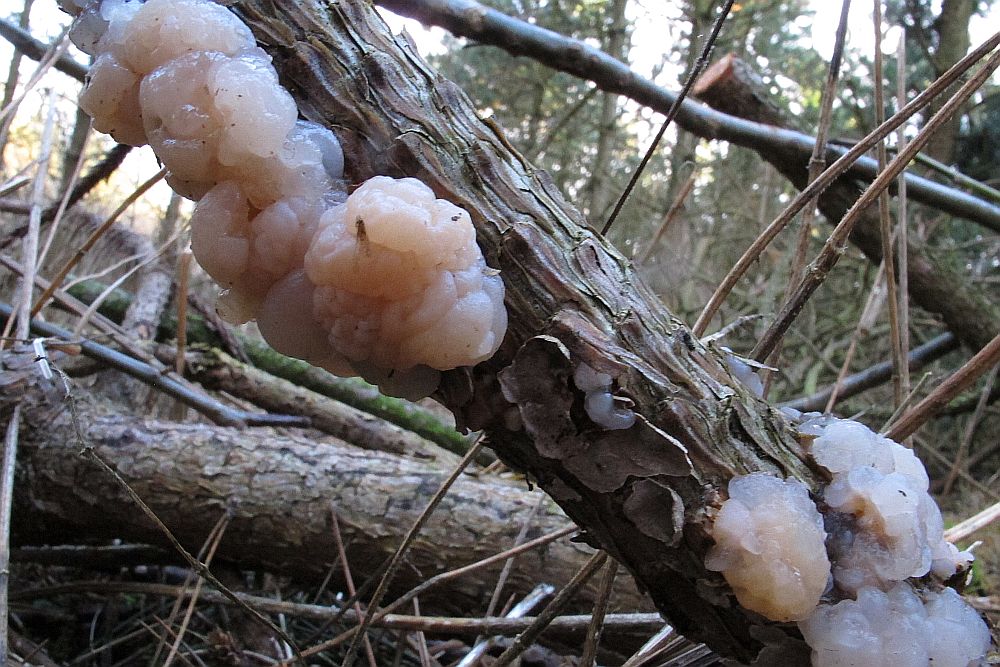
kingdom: Fungi
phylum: Basidiomycota
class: Tremellomycetes
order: Tremellales
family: Naemateliaceae
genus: Naematelia
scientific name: Naematelia encephala
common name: fyrre-bævresvamp
